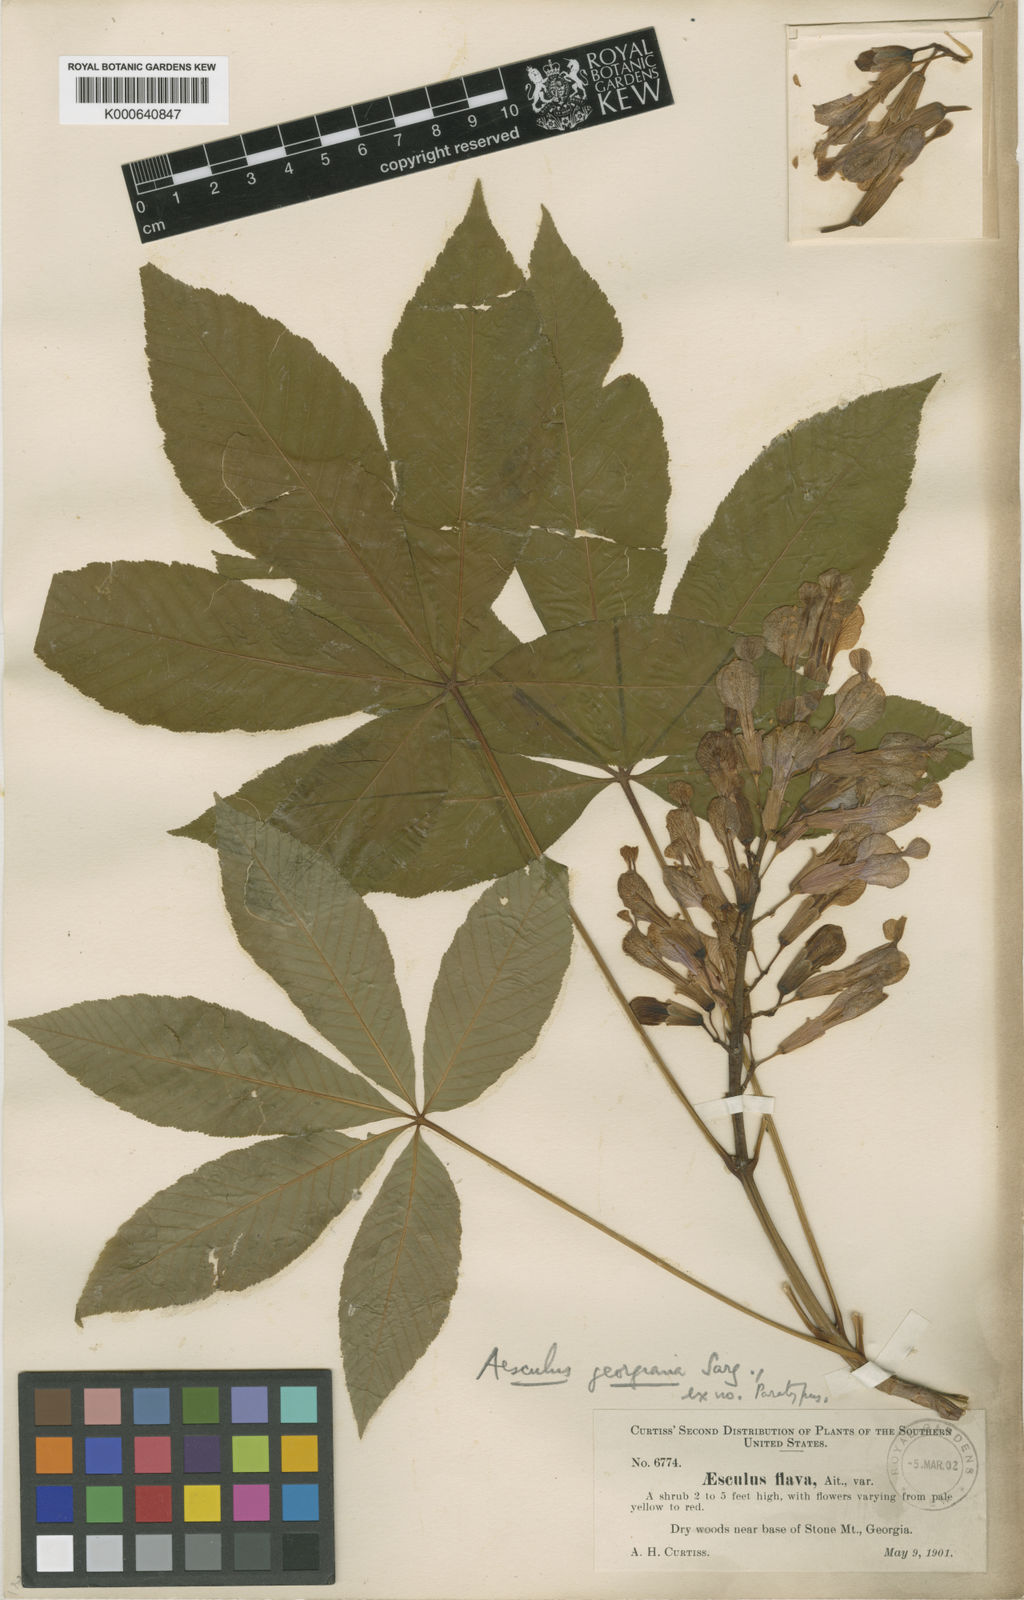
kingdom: Plantae
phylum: Tracheophyta
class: Magnoliopsida
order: Sapindales
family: Sapindaceae
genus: Aesculus
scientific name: Aesculus sylvatica
